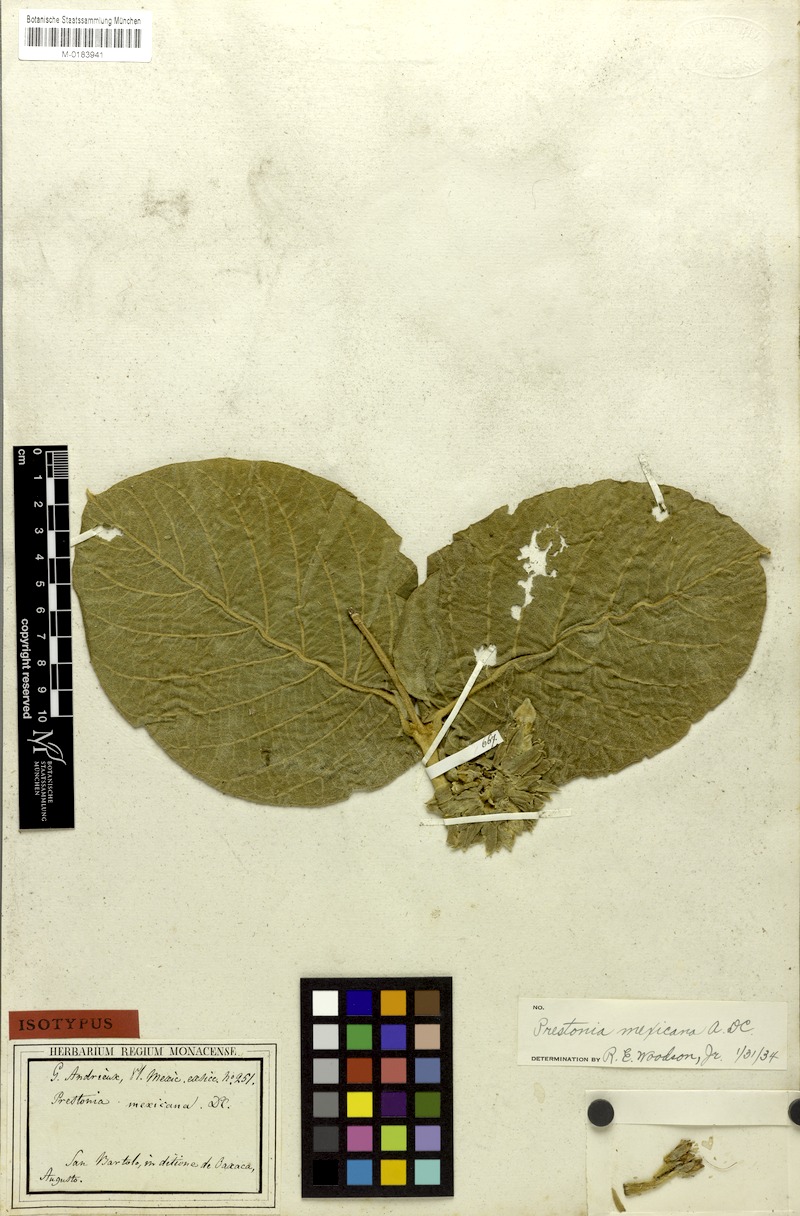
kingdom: Plantae
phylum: Tracheophyta
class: Magnoliopsida
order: Gentianales
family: Apocynaceae
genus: Prestonia
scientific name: Prestonia mexicana
